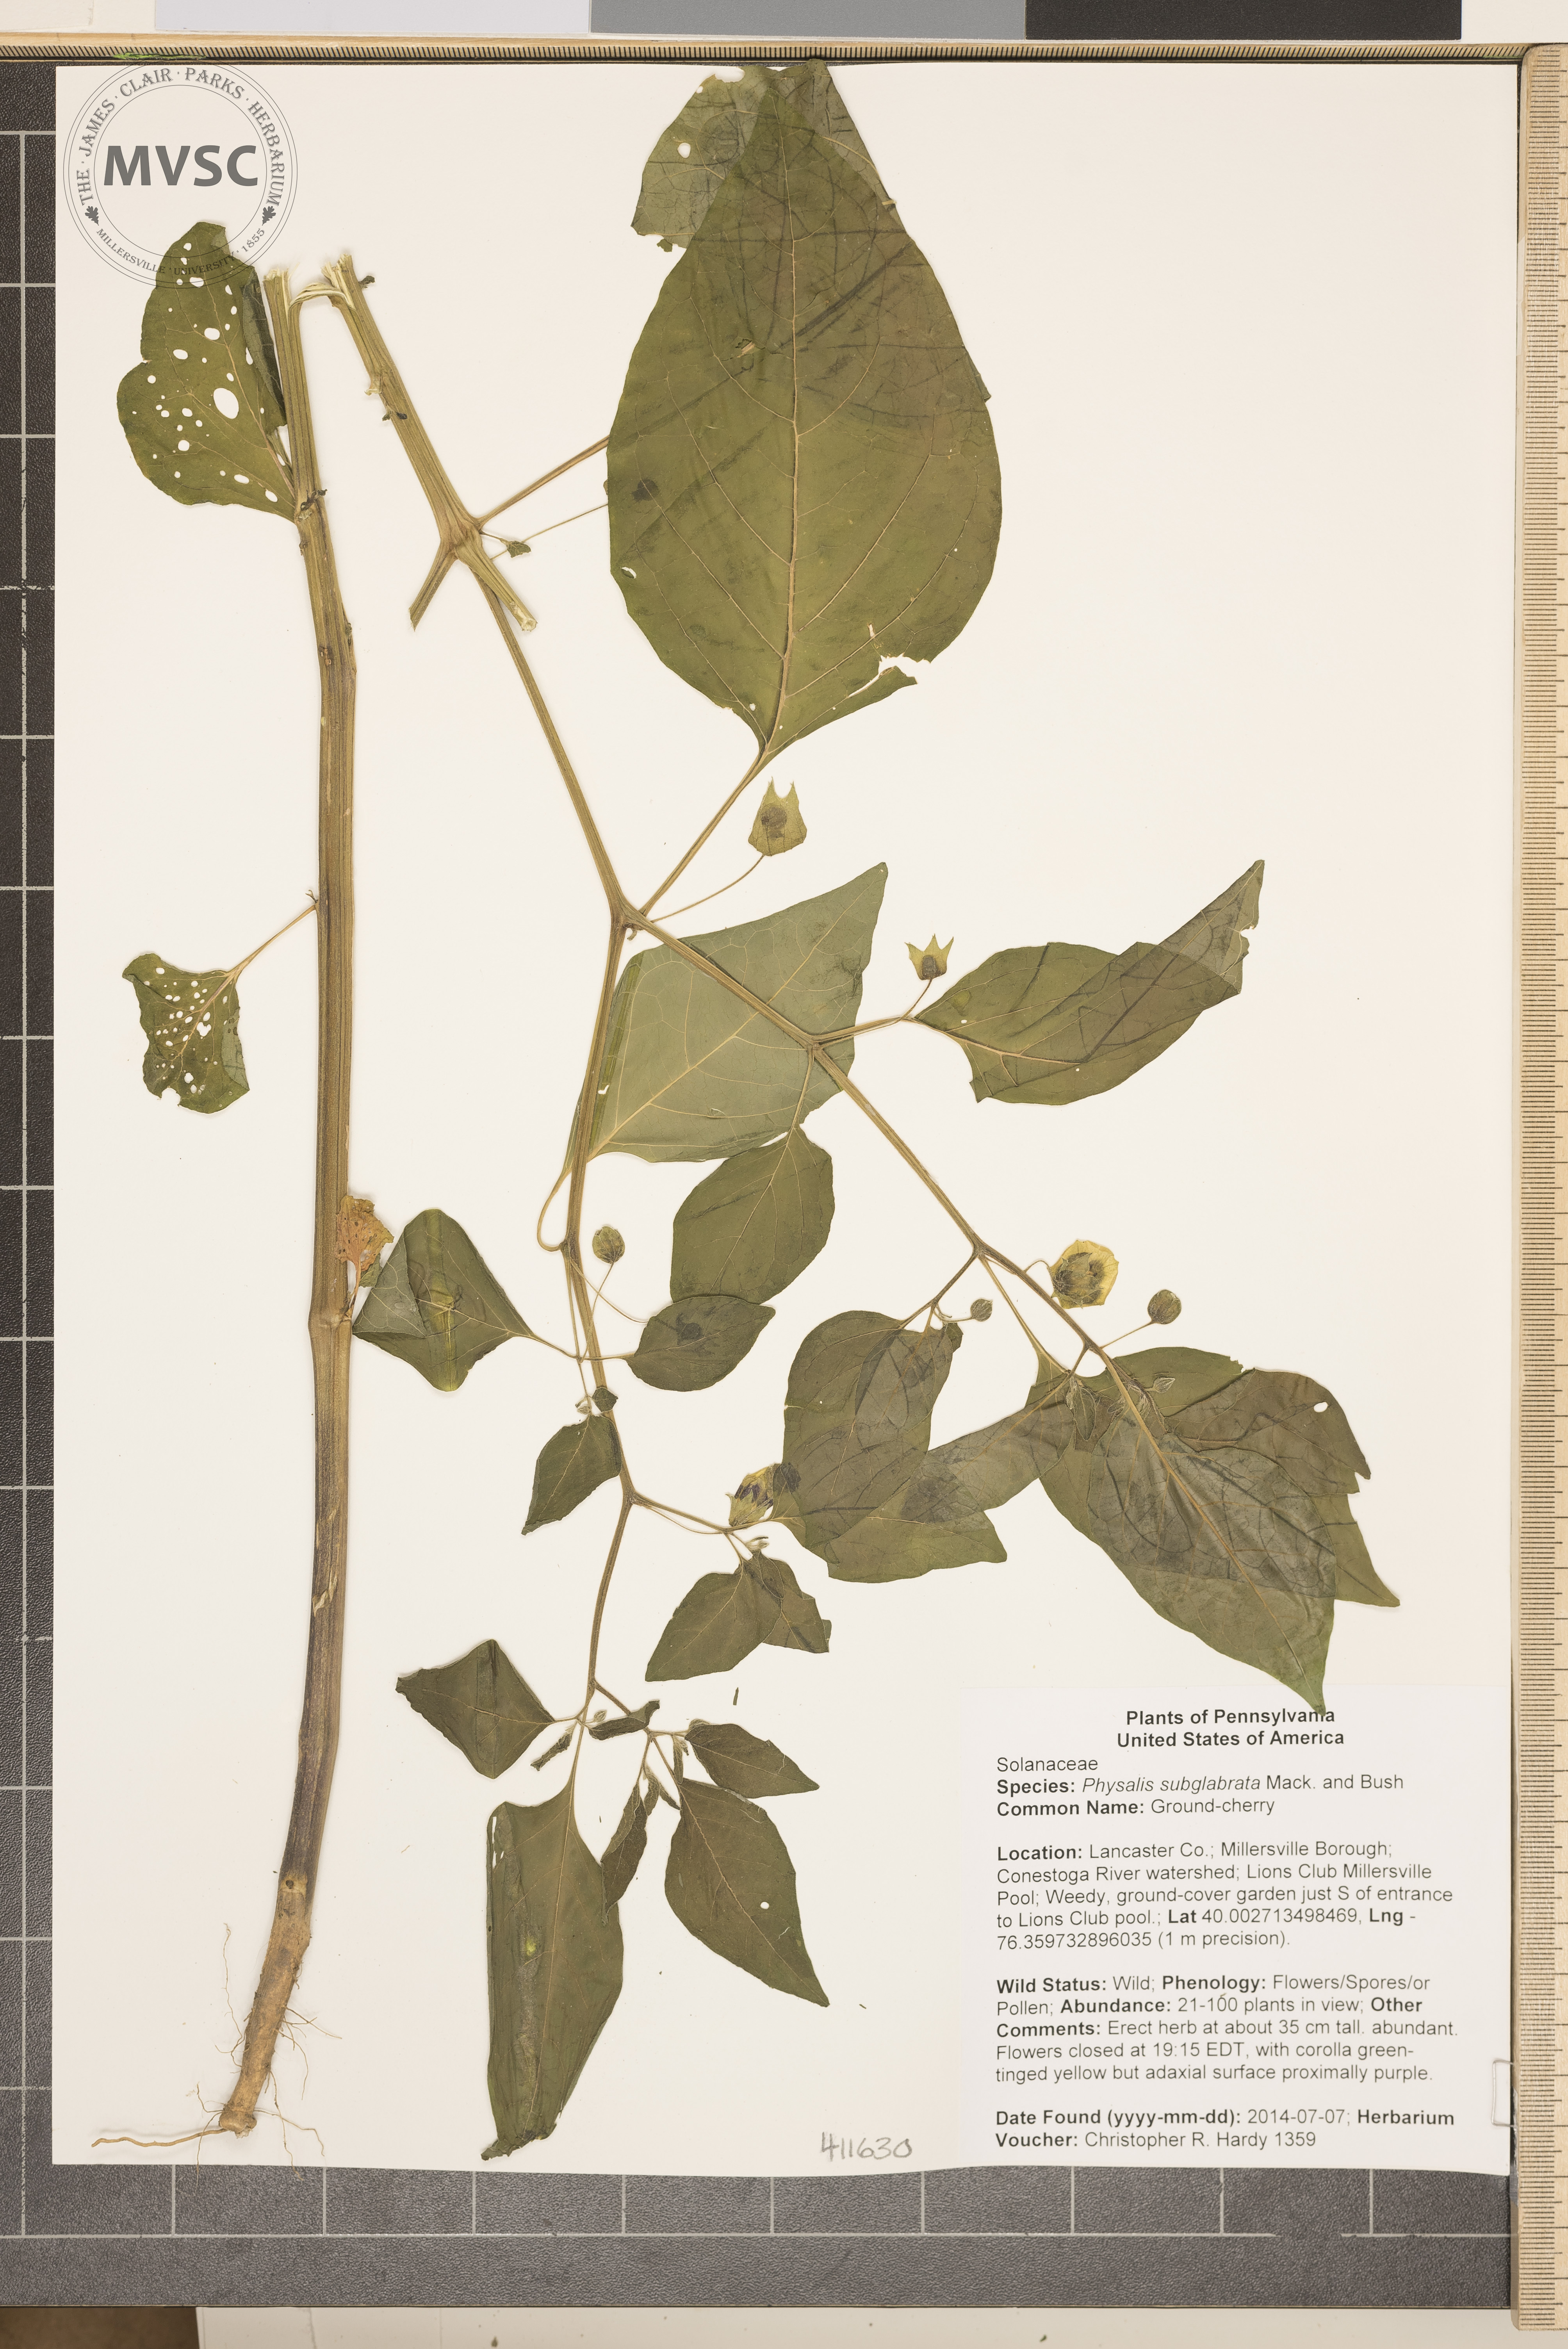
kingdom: Plantae
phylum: Tracheophyta
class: Magnoliopsida
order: Solanales
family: Solanaceae
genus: Physalis
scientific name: Physalis longifolia
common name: Ground-cherry
